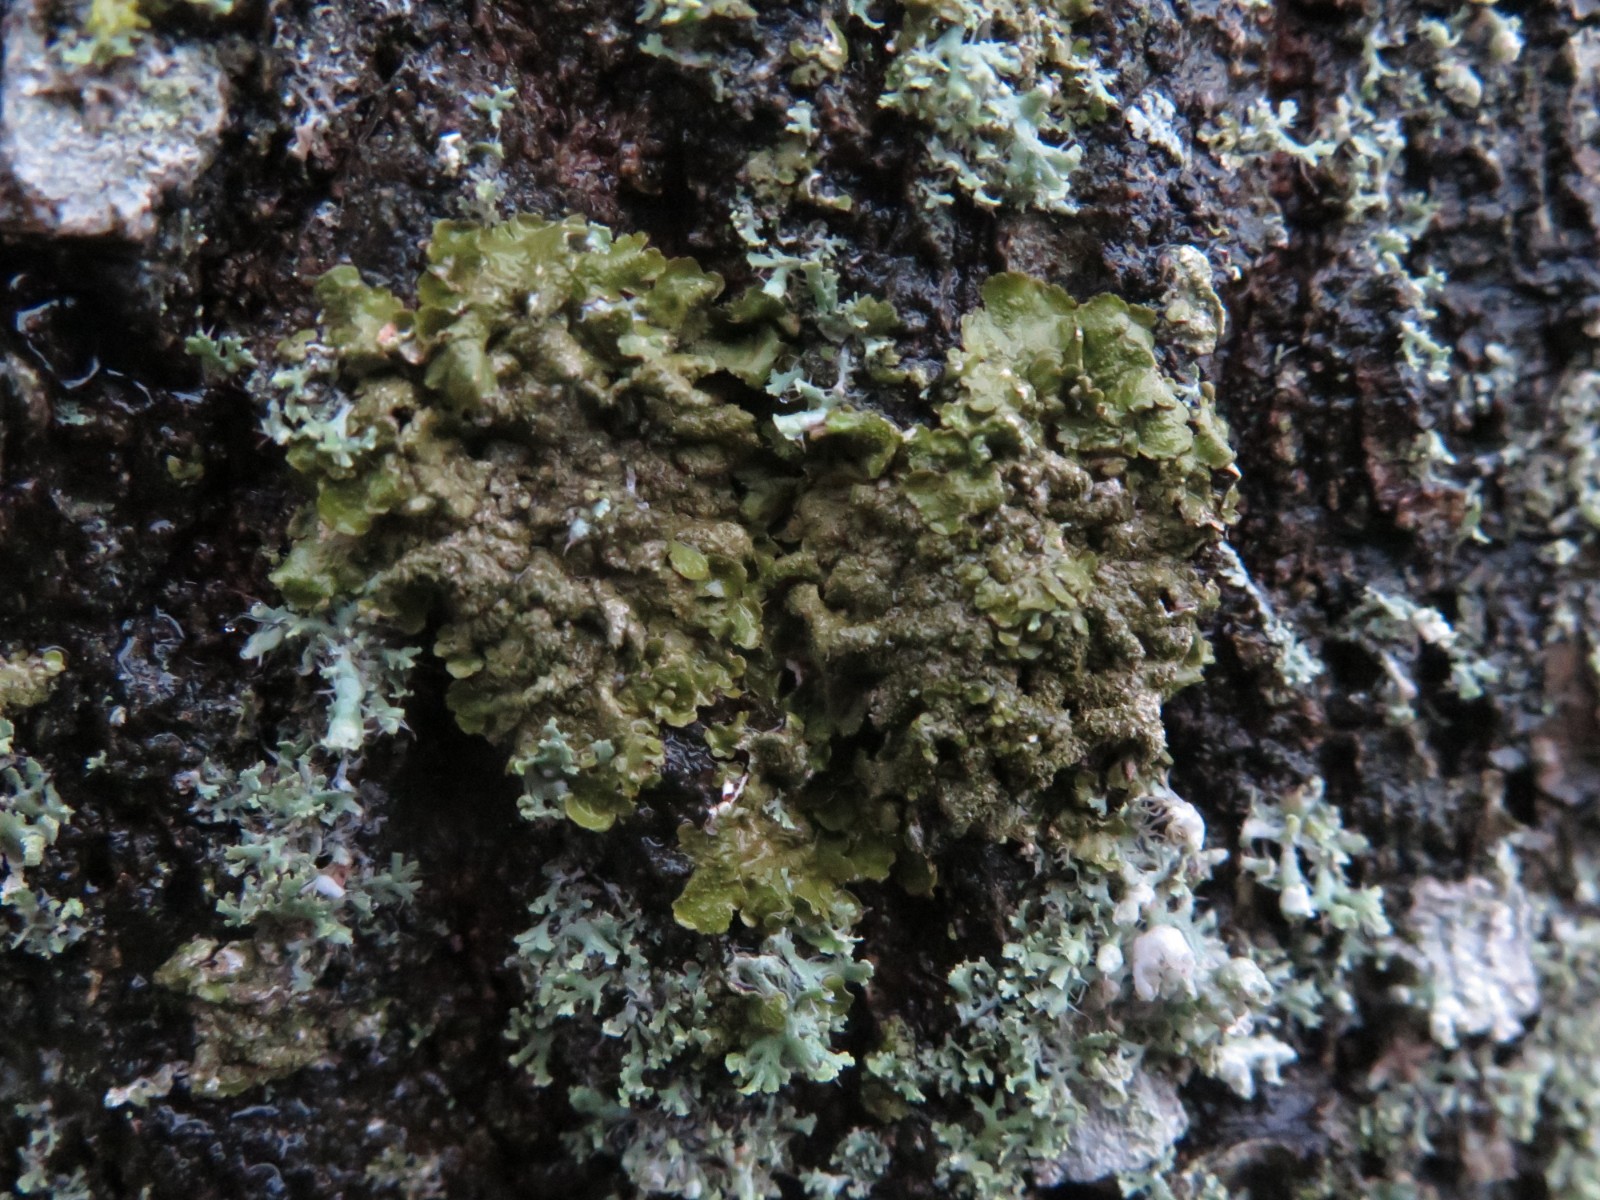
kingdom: Fungi
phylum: Ascomycota
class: Lecanoromycetes
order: Lecanorales
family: Parmeliaceae
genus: Melanelixia
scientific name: Melanelixia subaurifera
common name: guldpudret skållav
